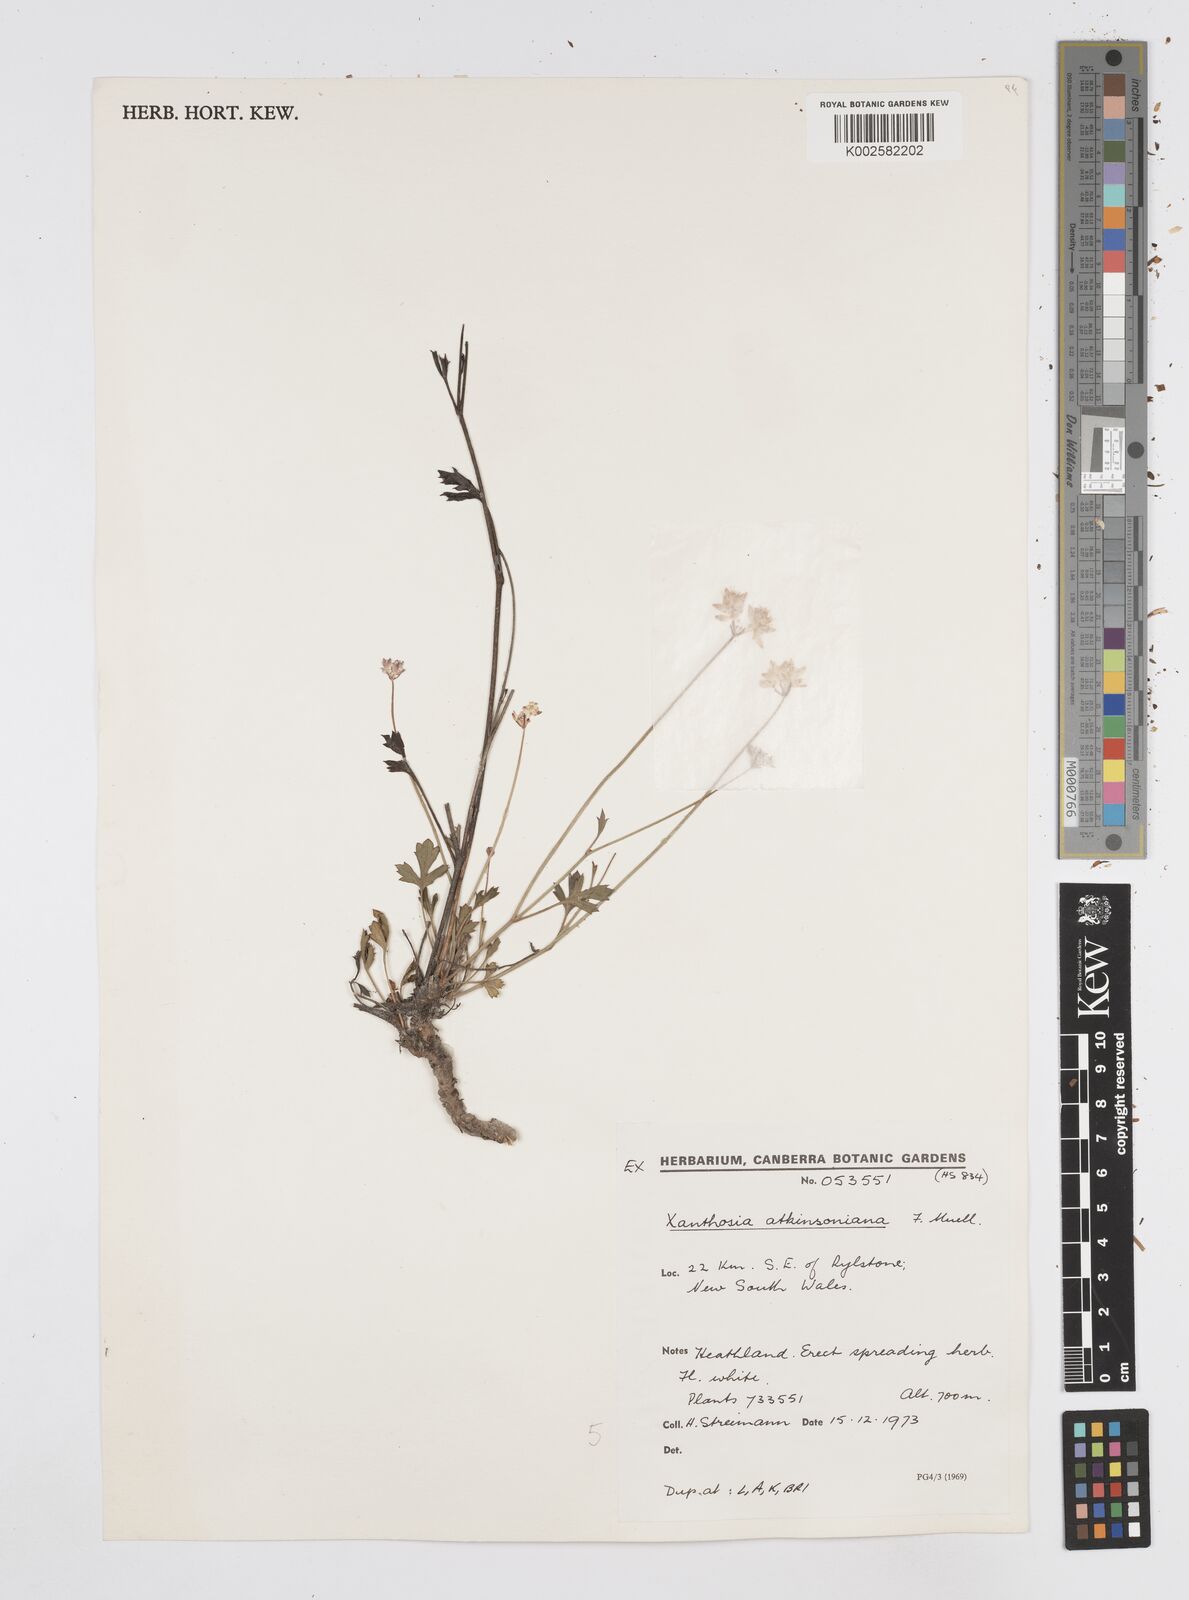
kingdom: Plantae
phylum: Tracheophyta
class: Magnoliopsida
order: Apiales
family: Apiaceae
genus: Xanthosia
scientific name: Xanthosia atkinsoniana
